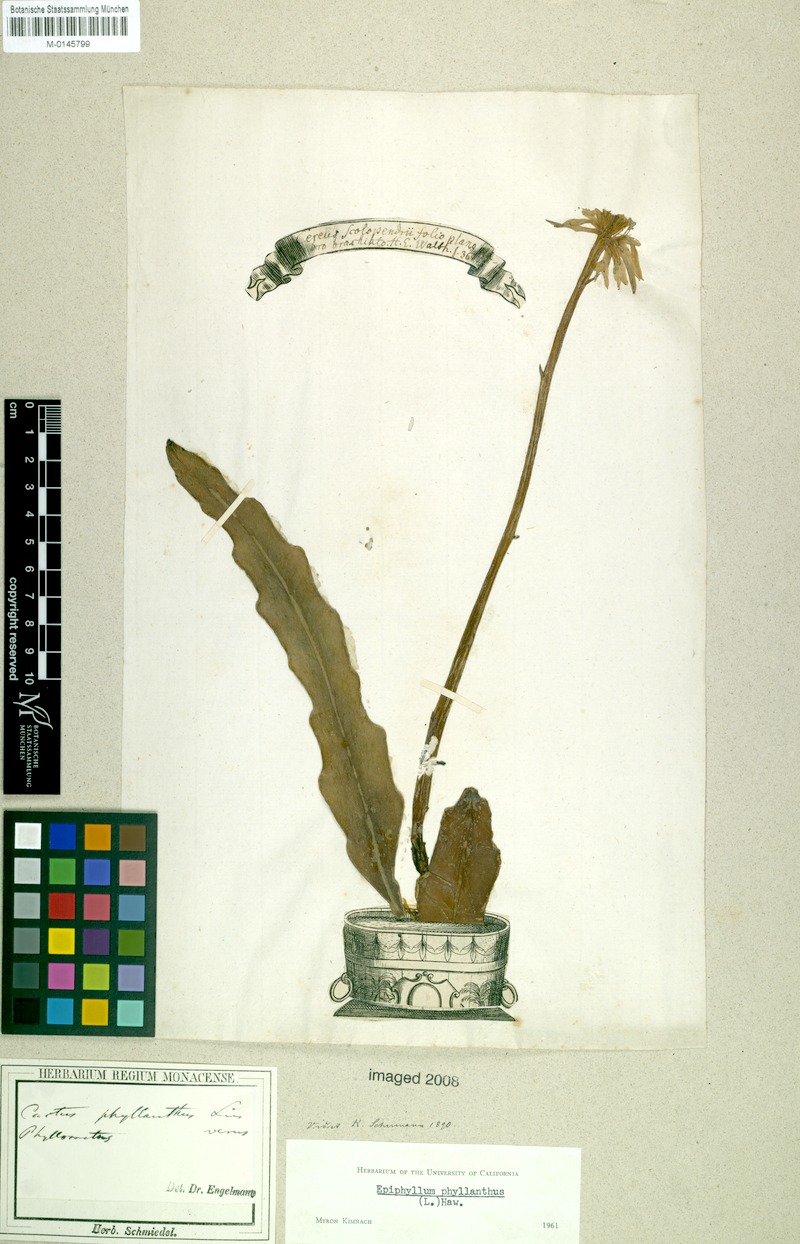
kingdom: Plantae
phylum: Tracheophyta
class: Magnoliopsida
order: Caryophyllales
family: Cactaceae
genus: Epiphyllum
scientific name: Epiphyllum phyllanthus
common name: Climbing cactus
